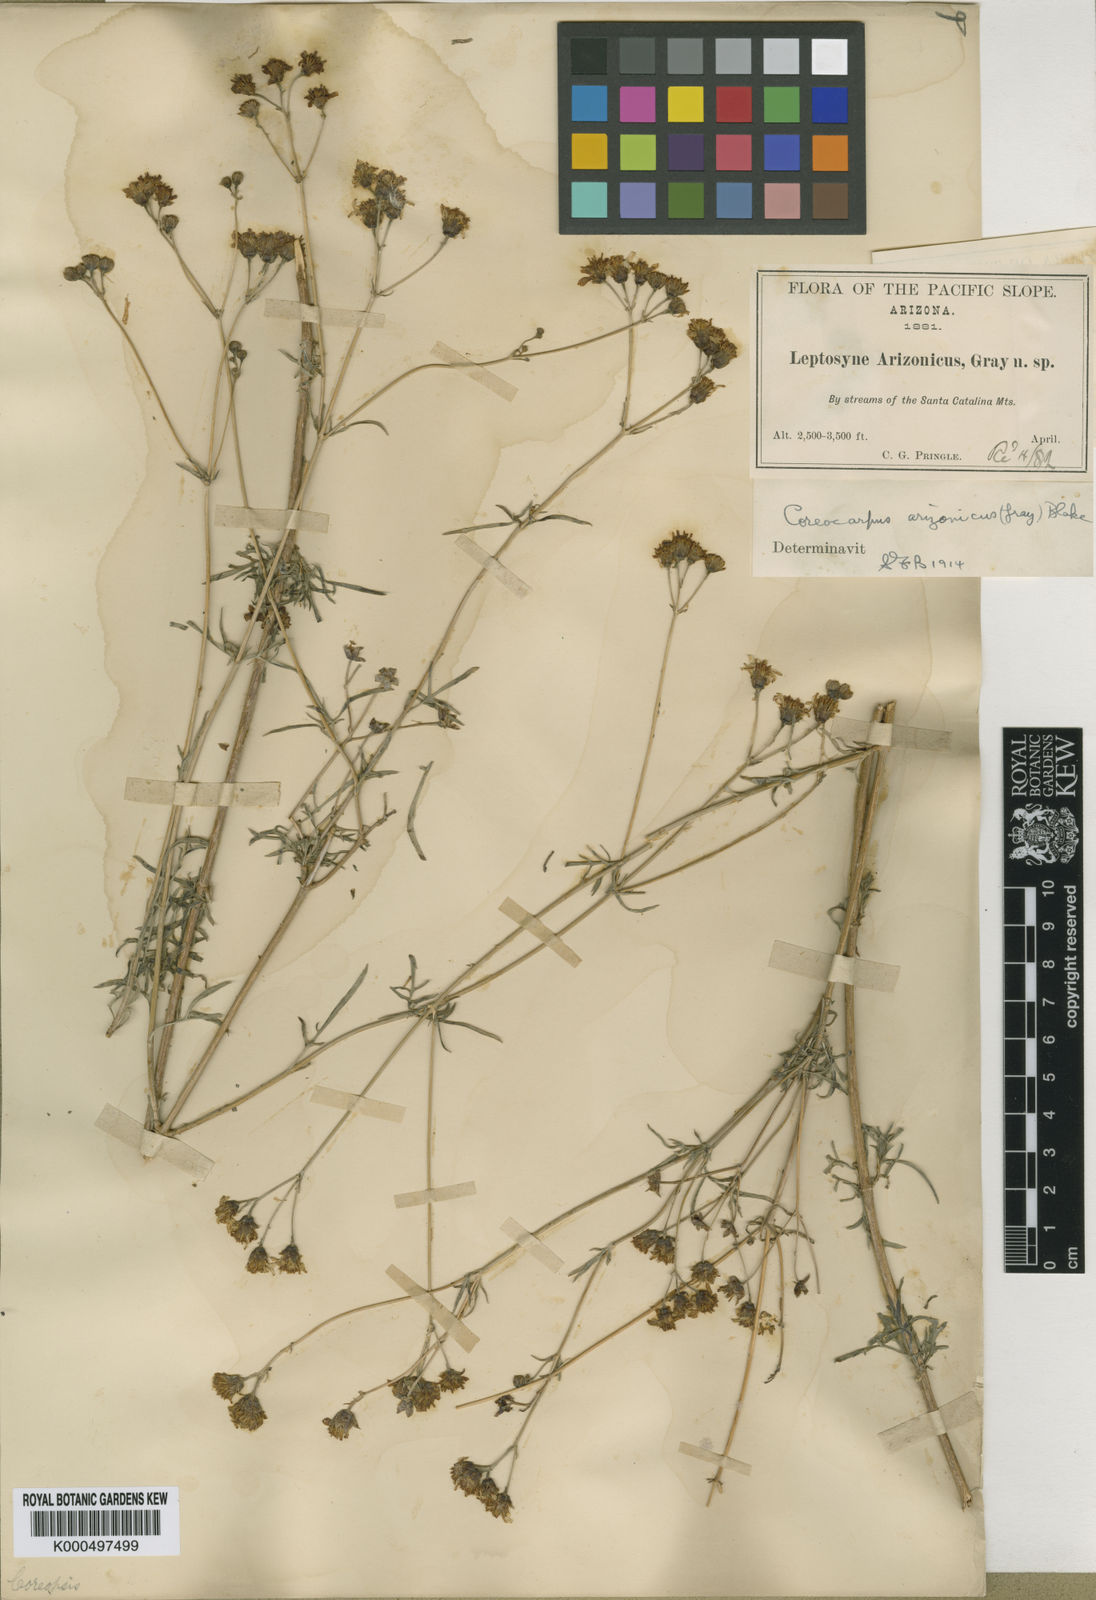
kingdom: Plantae
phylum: Tracheophyta
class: Magnoliopsida
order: Asterales
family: Asteraceae
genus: Coreocarpus
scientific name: Coreocarpus arizonicus
